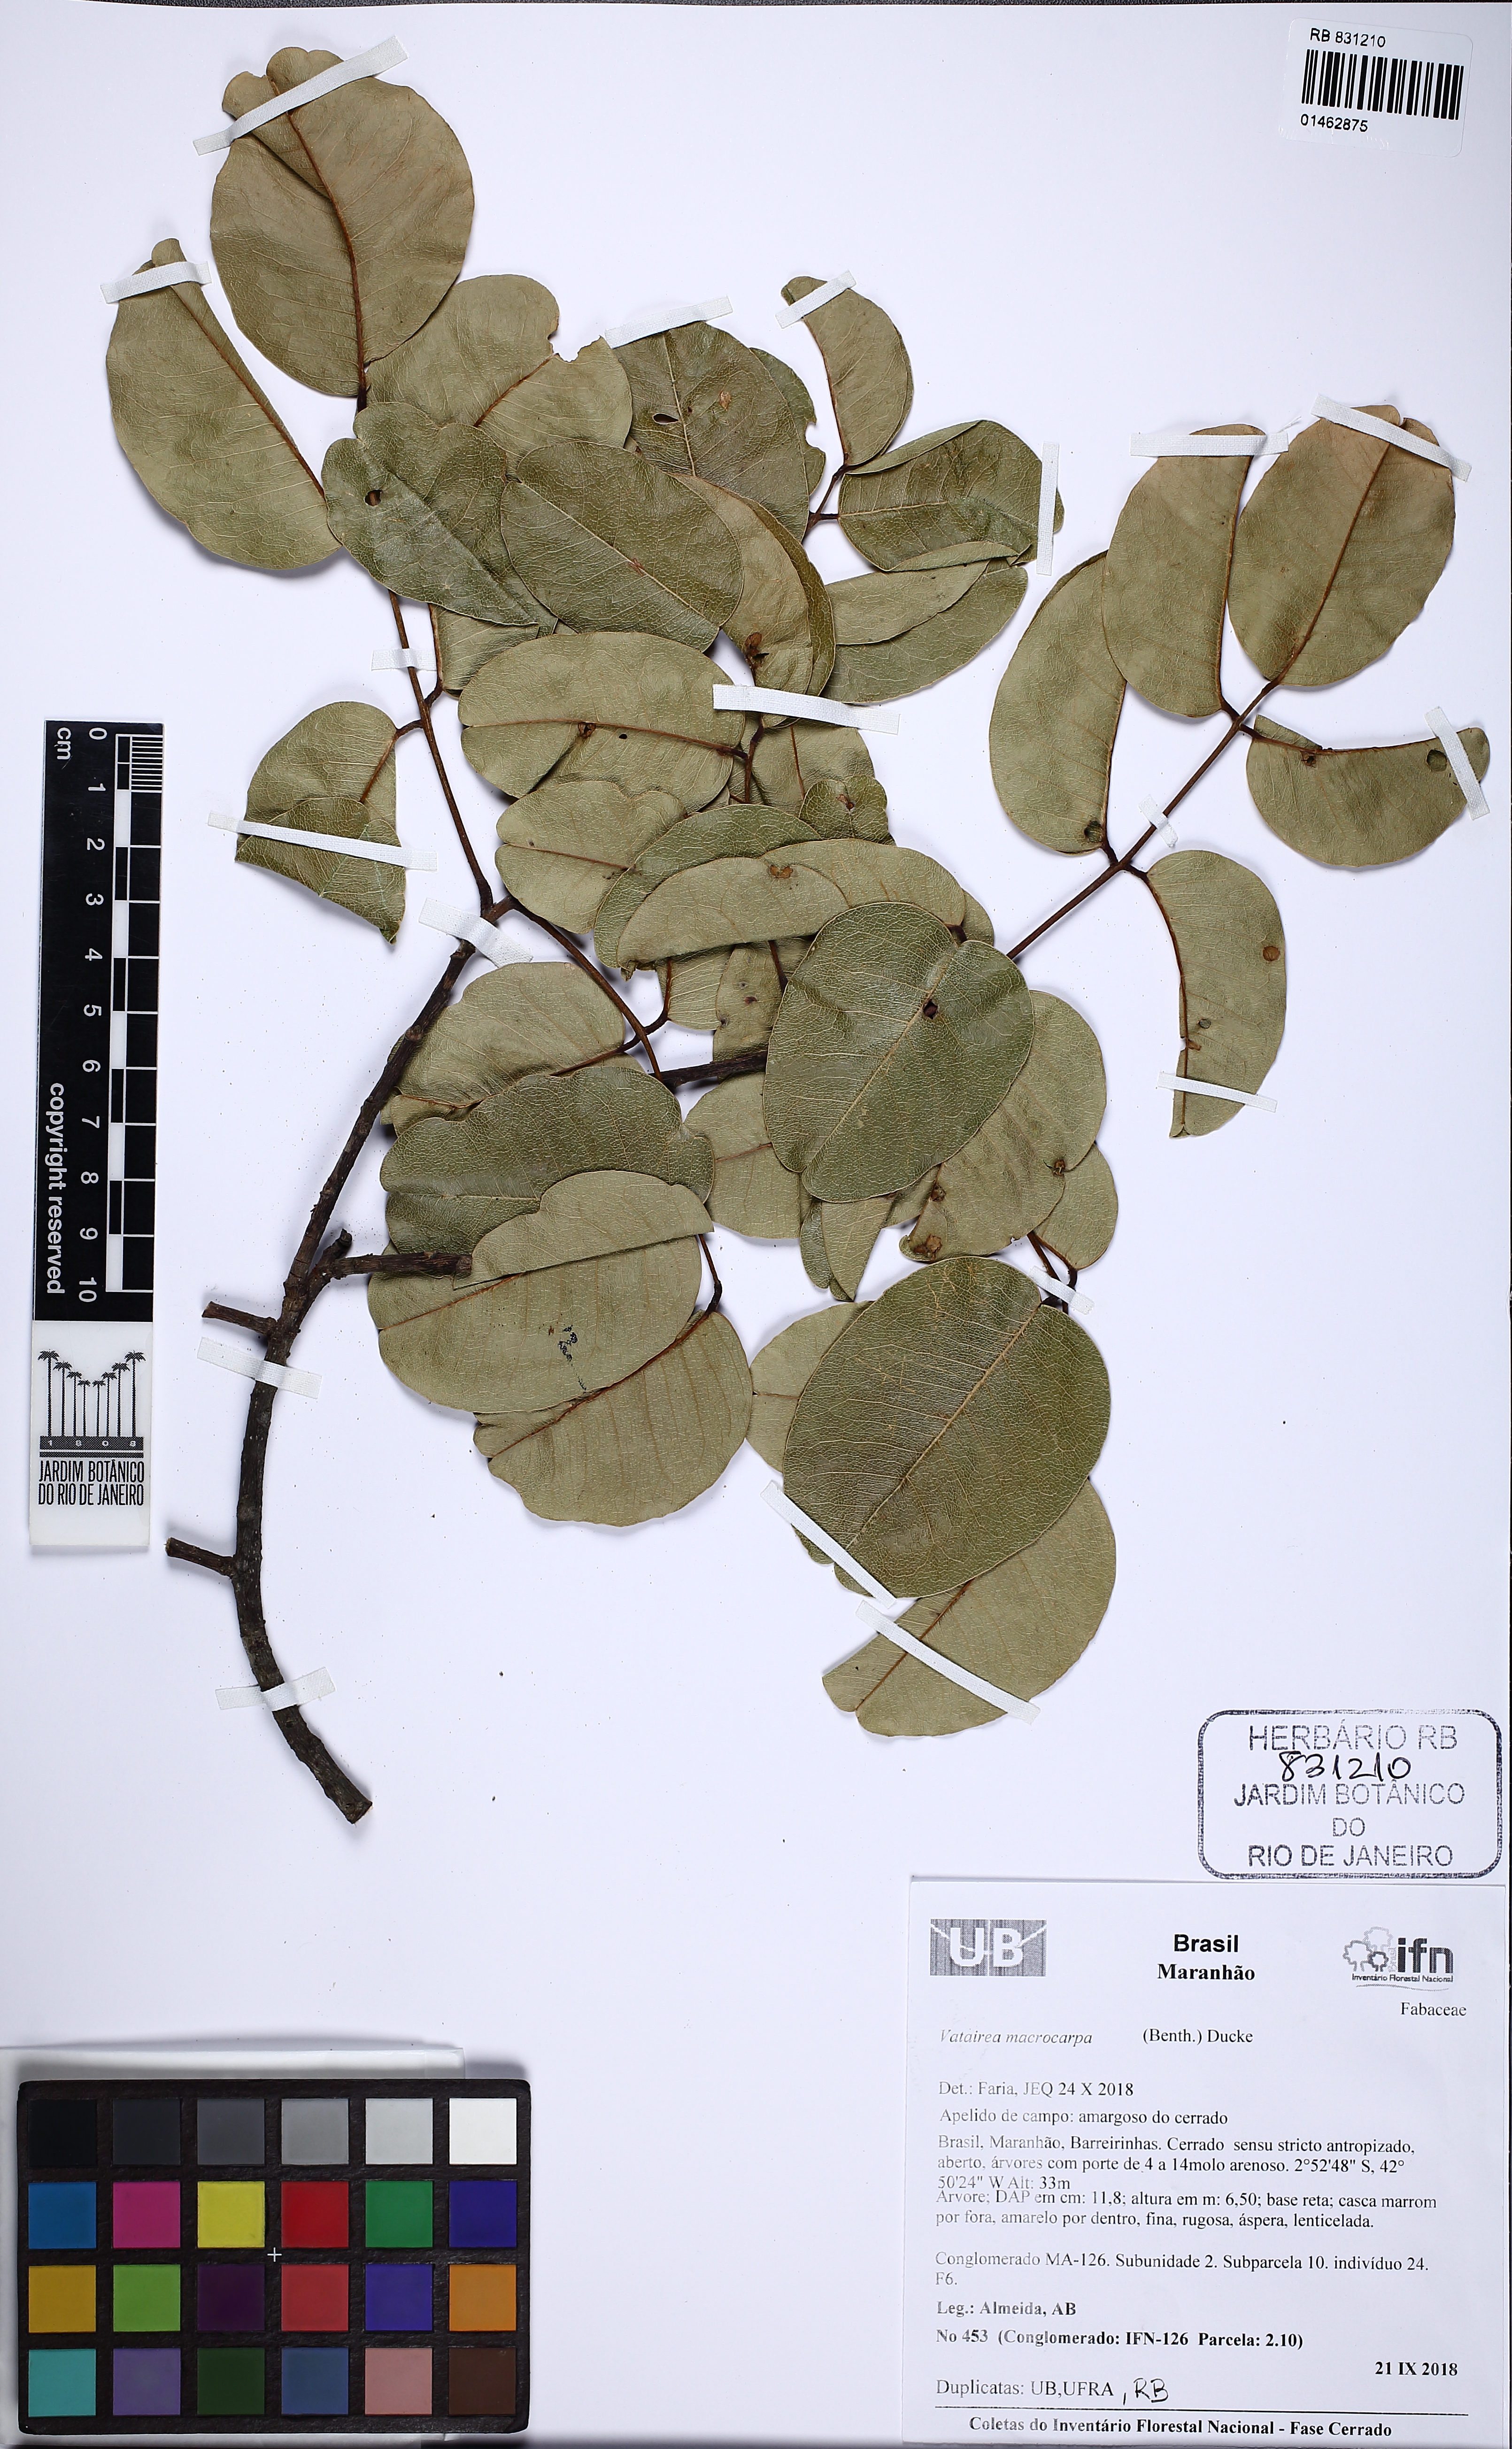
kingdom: Plantae
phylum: Tracheophyta
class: Magnoliopsida
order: Fabales
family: Fabaceae
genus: Vatairea
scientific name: Vatairea macrocarpa
